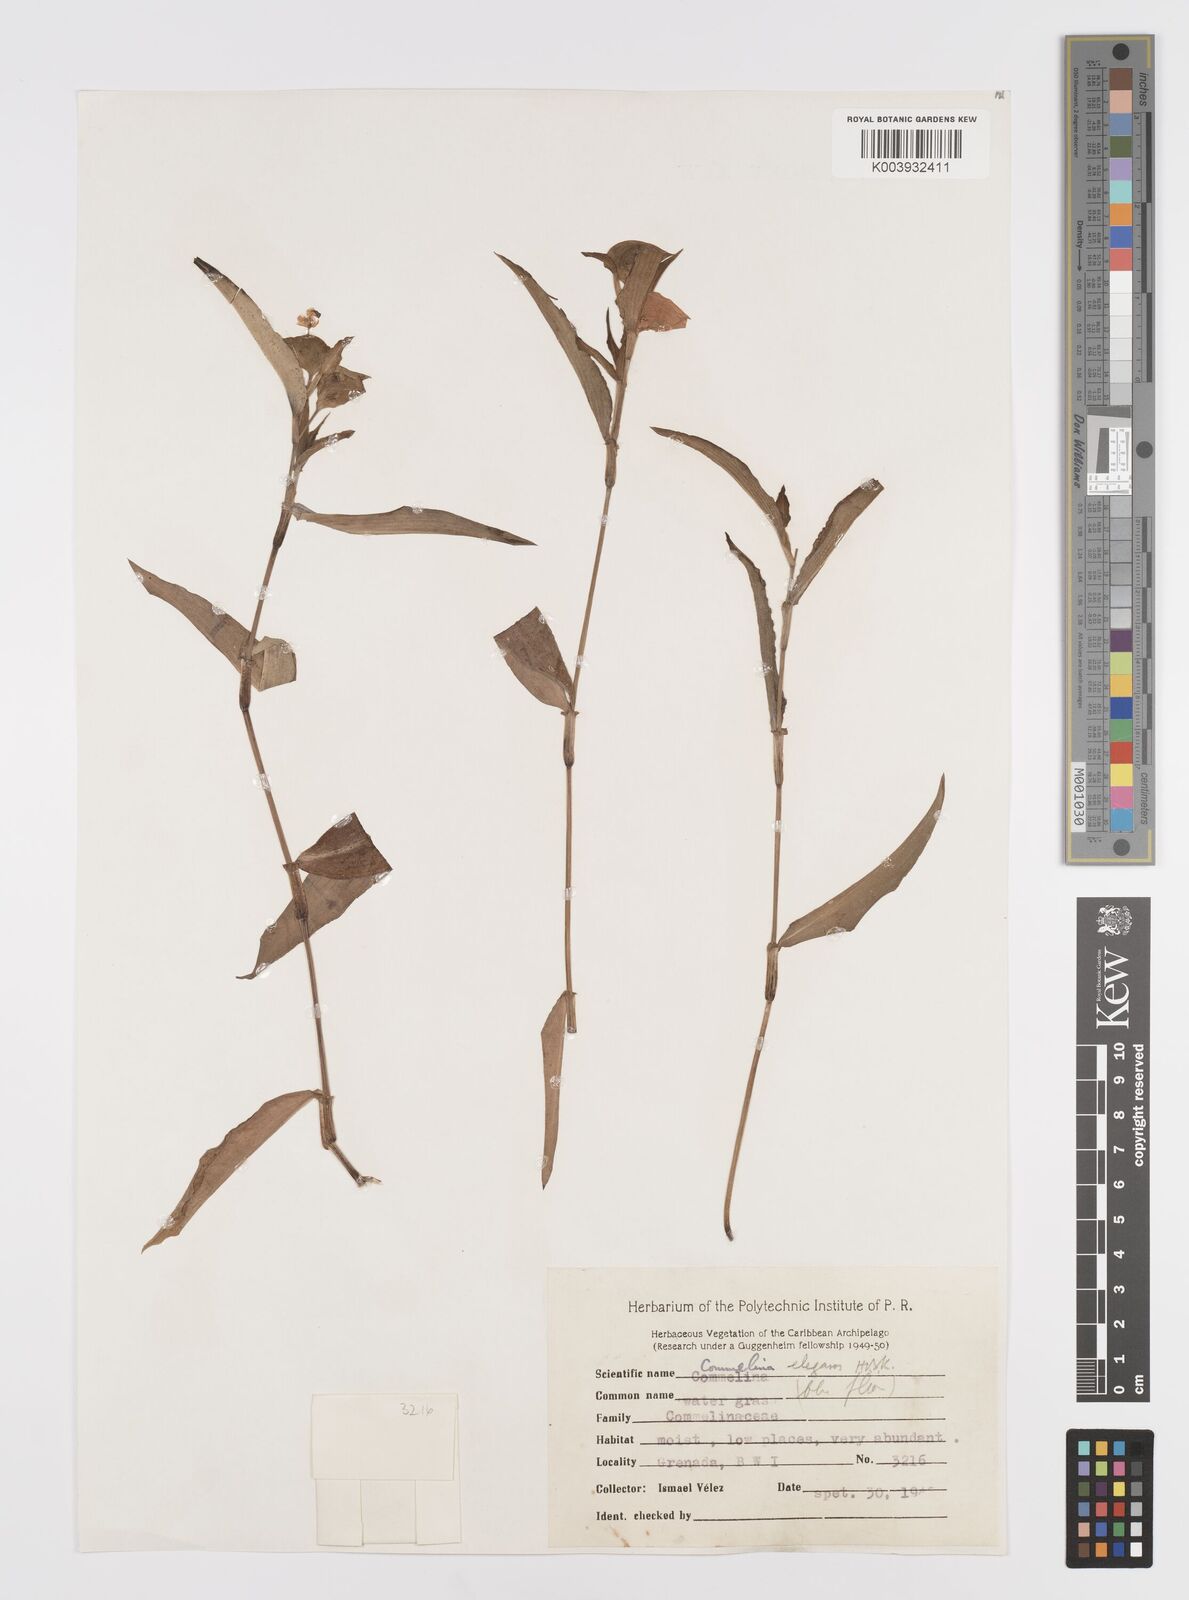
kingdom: Plantae
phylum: Tracheophyta
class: Liliopsida
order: Commelinales
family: Commelinaceae
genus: Commelina
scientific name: Commelina erecta
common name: Blousel blommetjie
